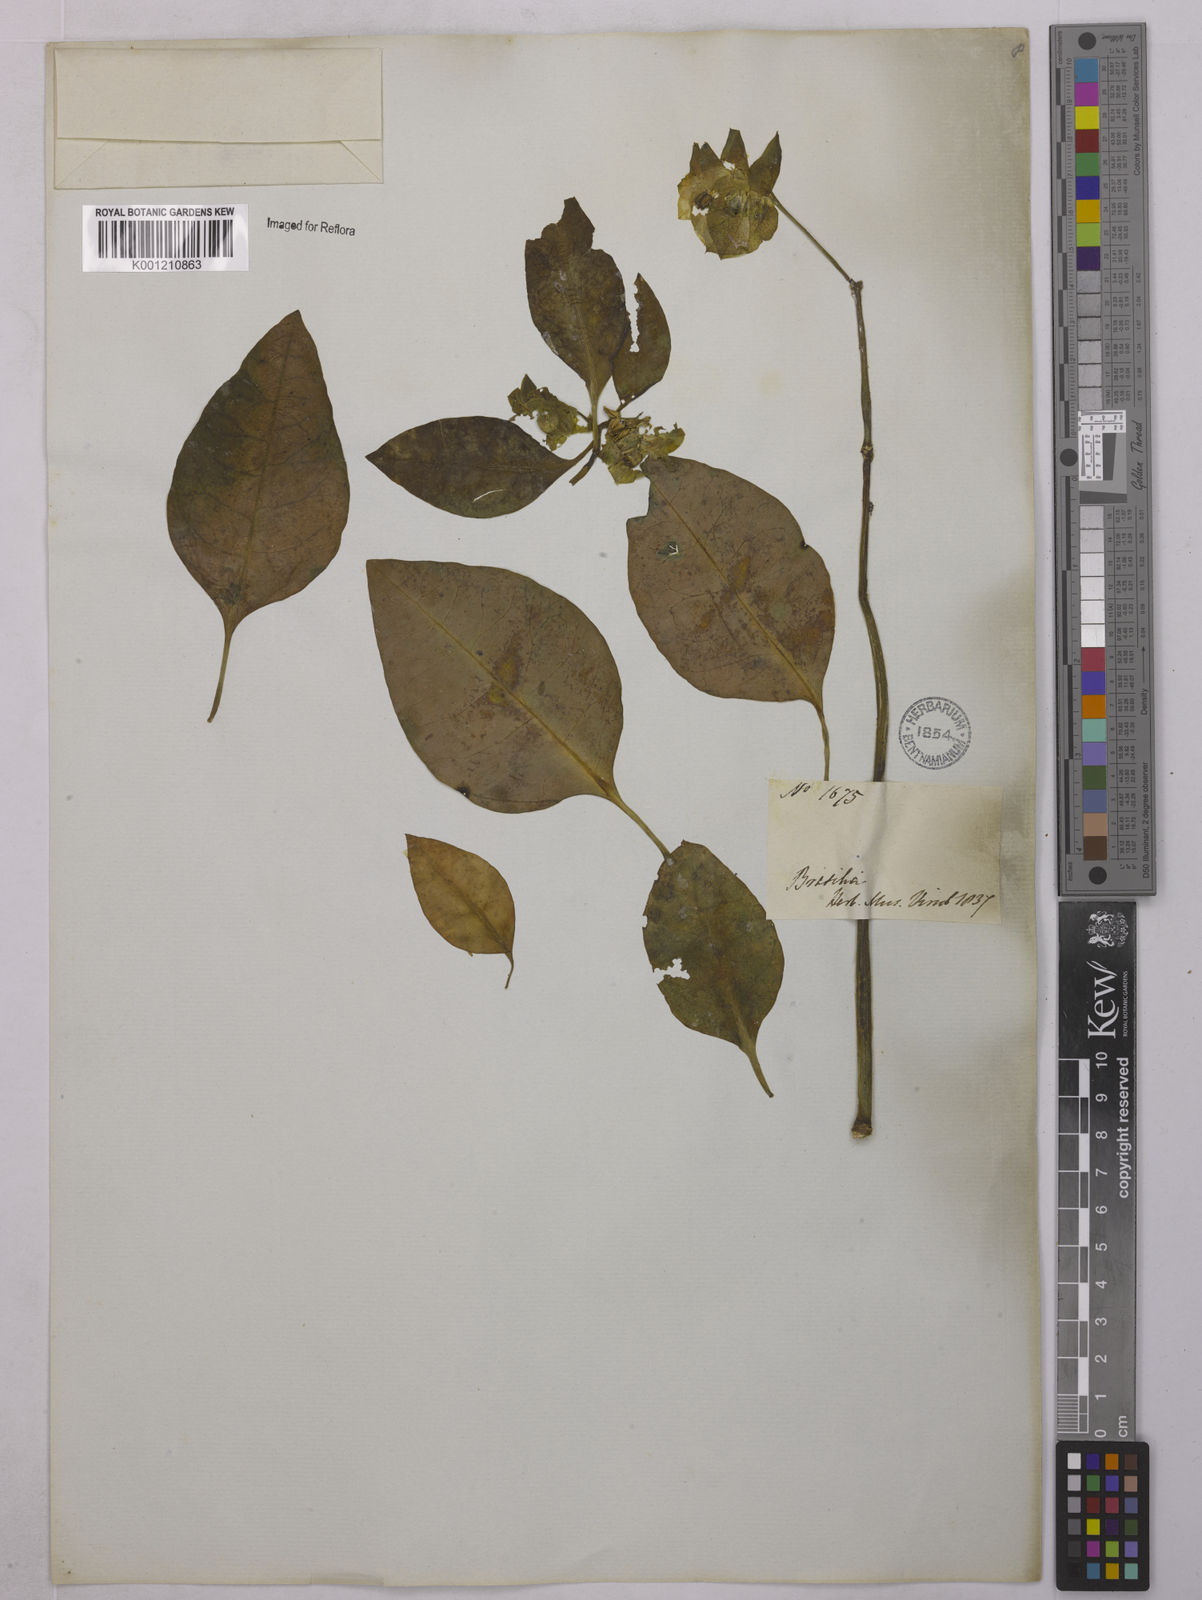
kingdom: Plantae
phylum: Tracheophyta
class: Magnoliopsida
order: Malpighiales
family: Euphorbiaceae
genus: Euphorbia
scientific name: Euphorbia comosa
